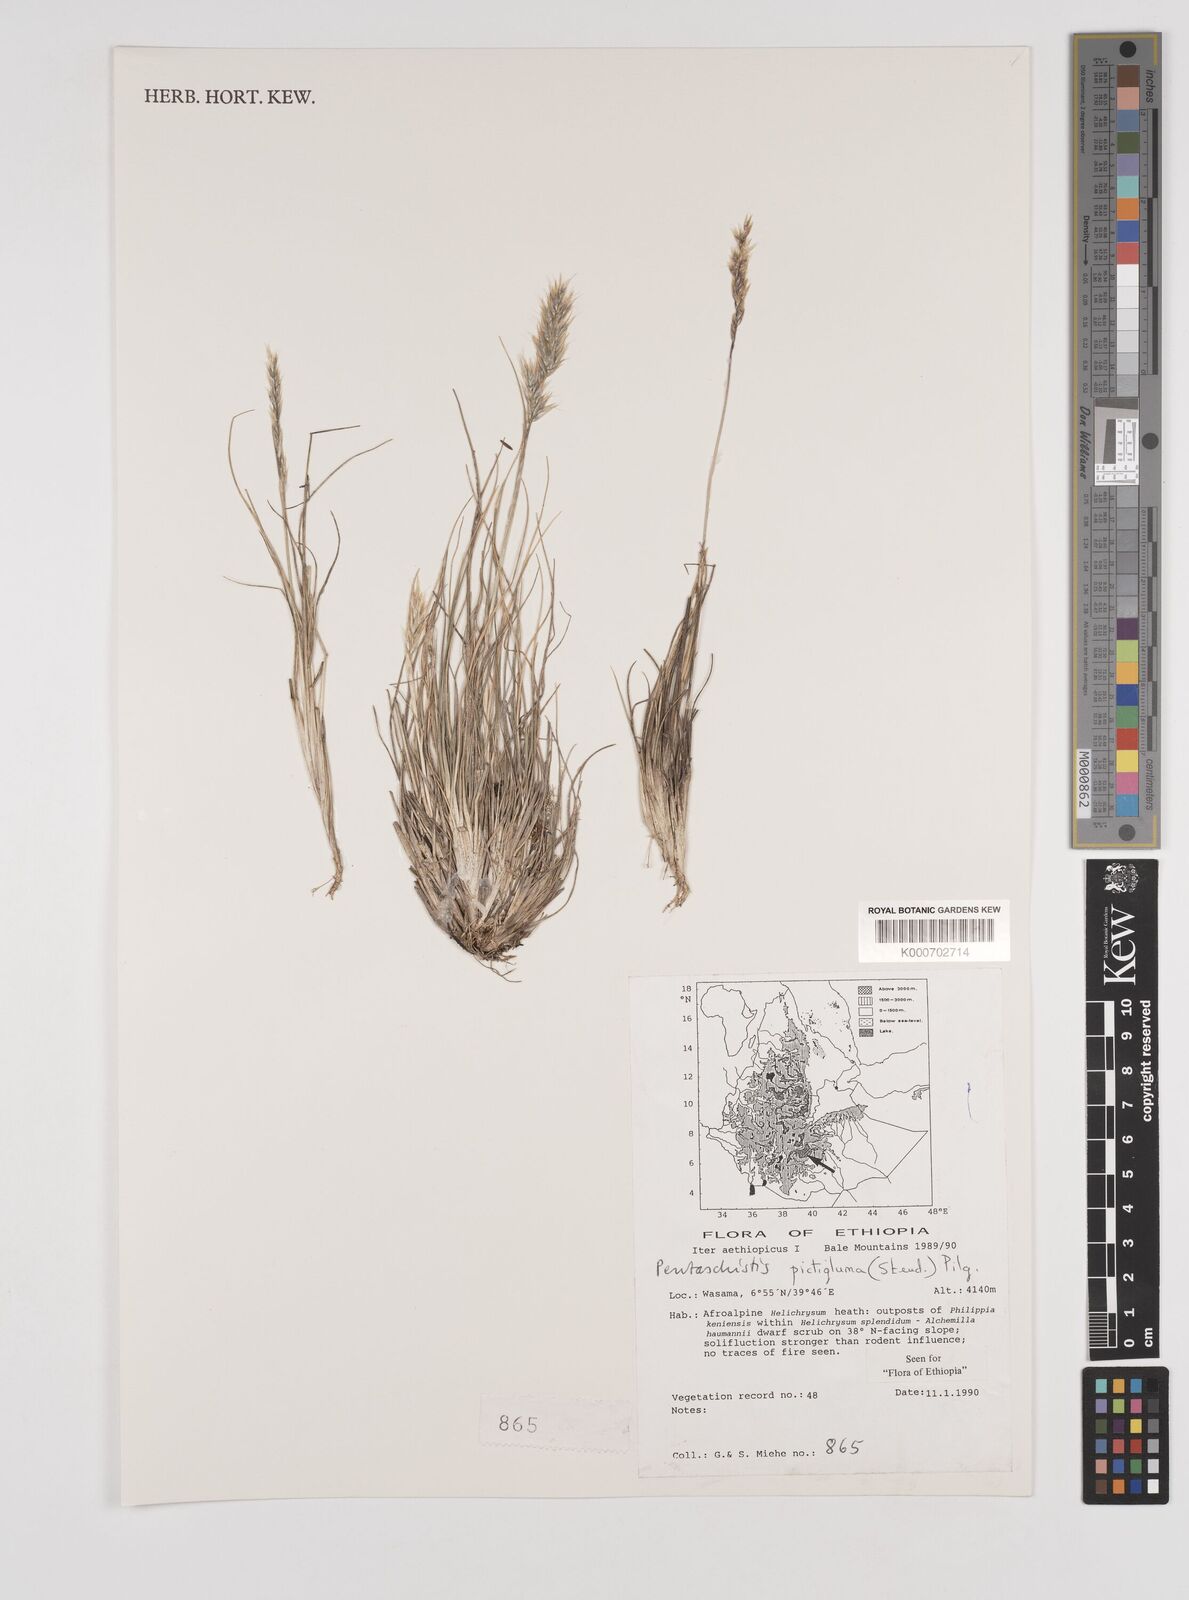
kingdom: Plantae
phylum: Tracheophyta
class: Liliopsida
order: Poales
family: Poaceae
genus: Pentameris
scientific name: Pentameris pictigluma
